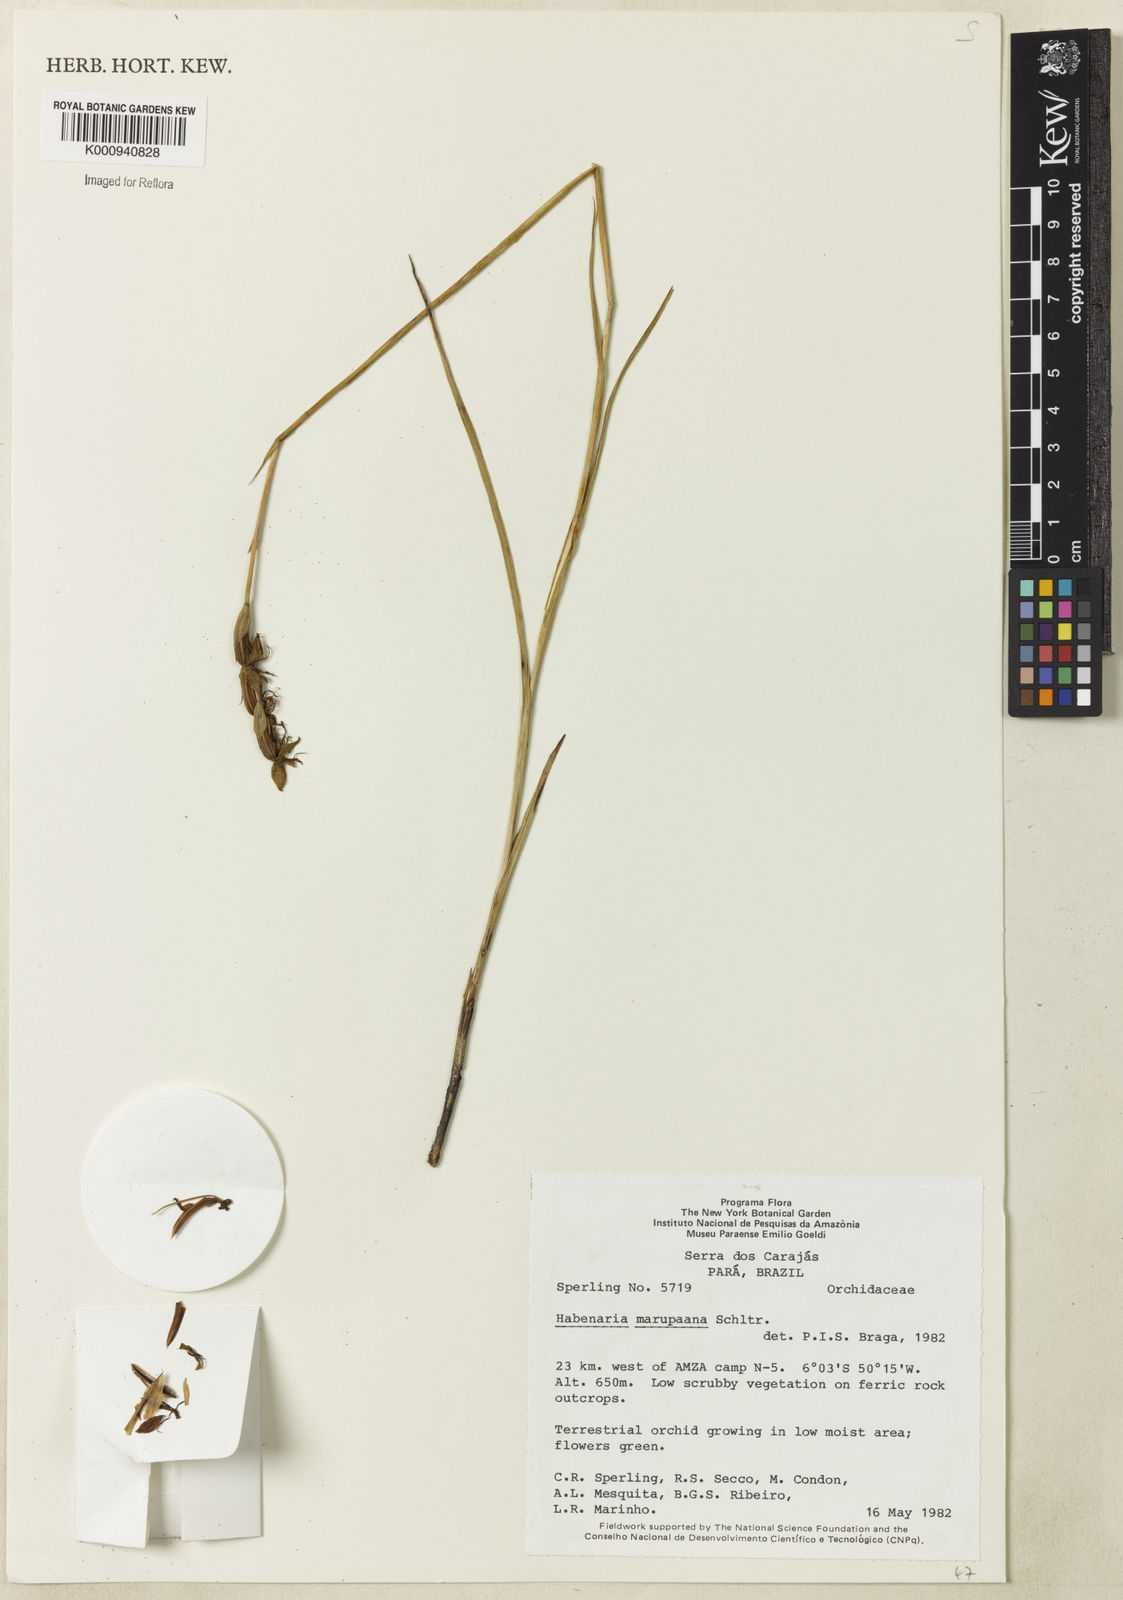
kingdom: Plantae
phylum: Tracheophyta
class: Liliopsida
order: Asparagales
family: Orchidaceae
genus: Habenaria
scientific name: Habenaria amambayensis
